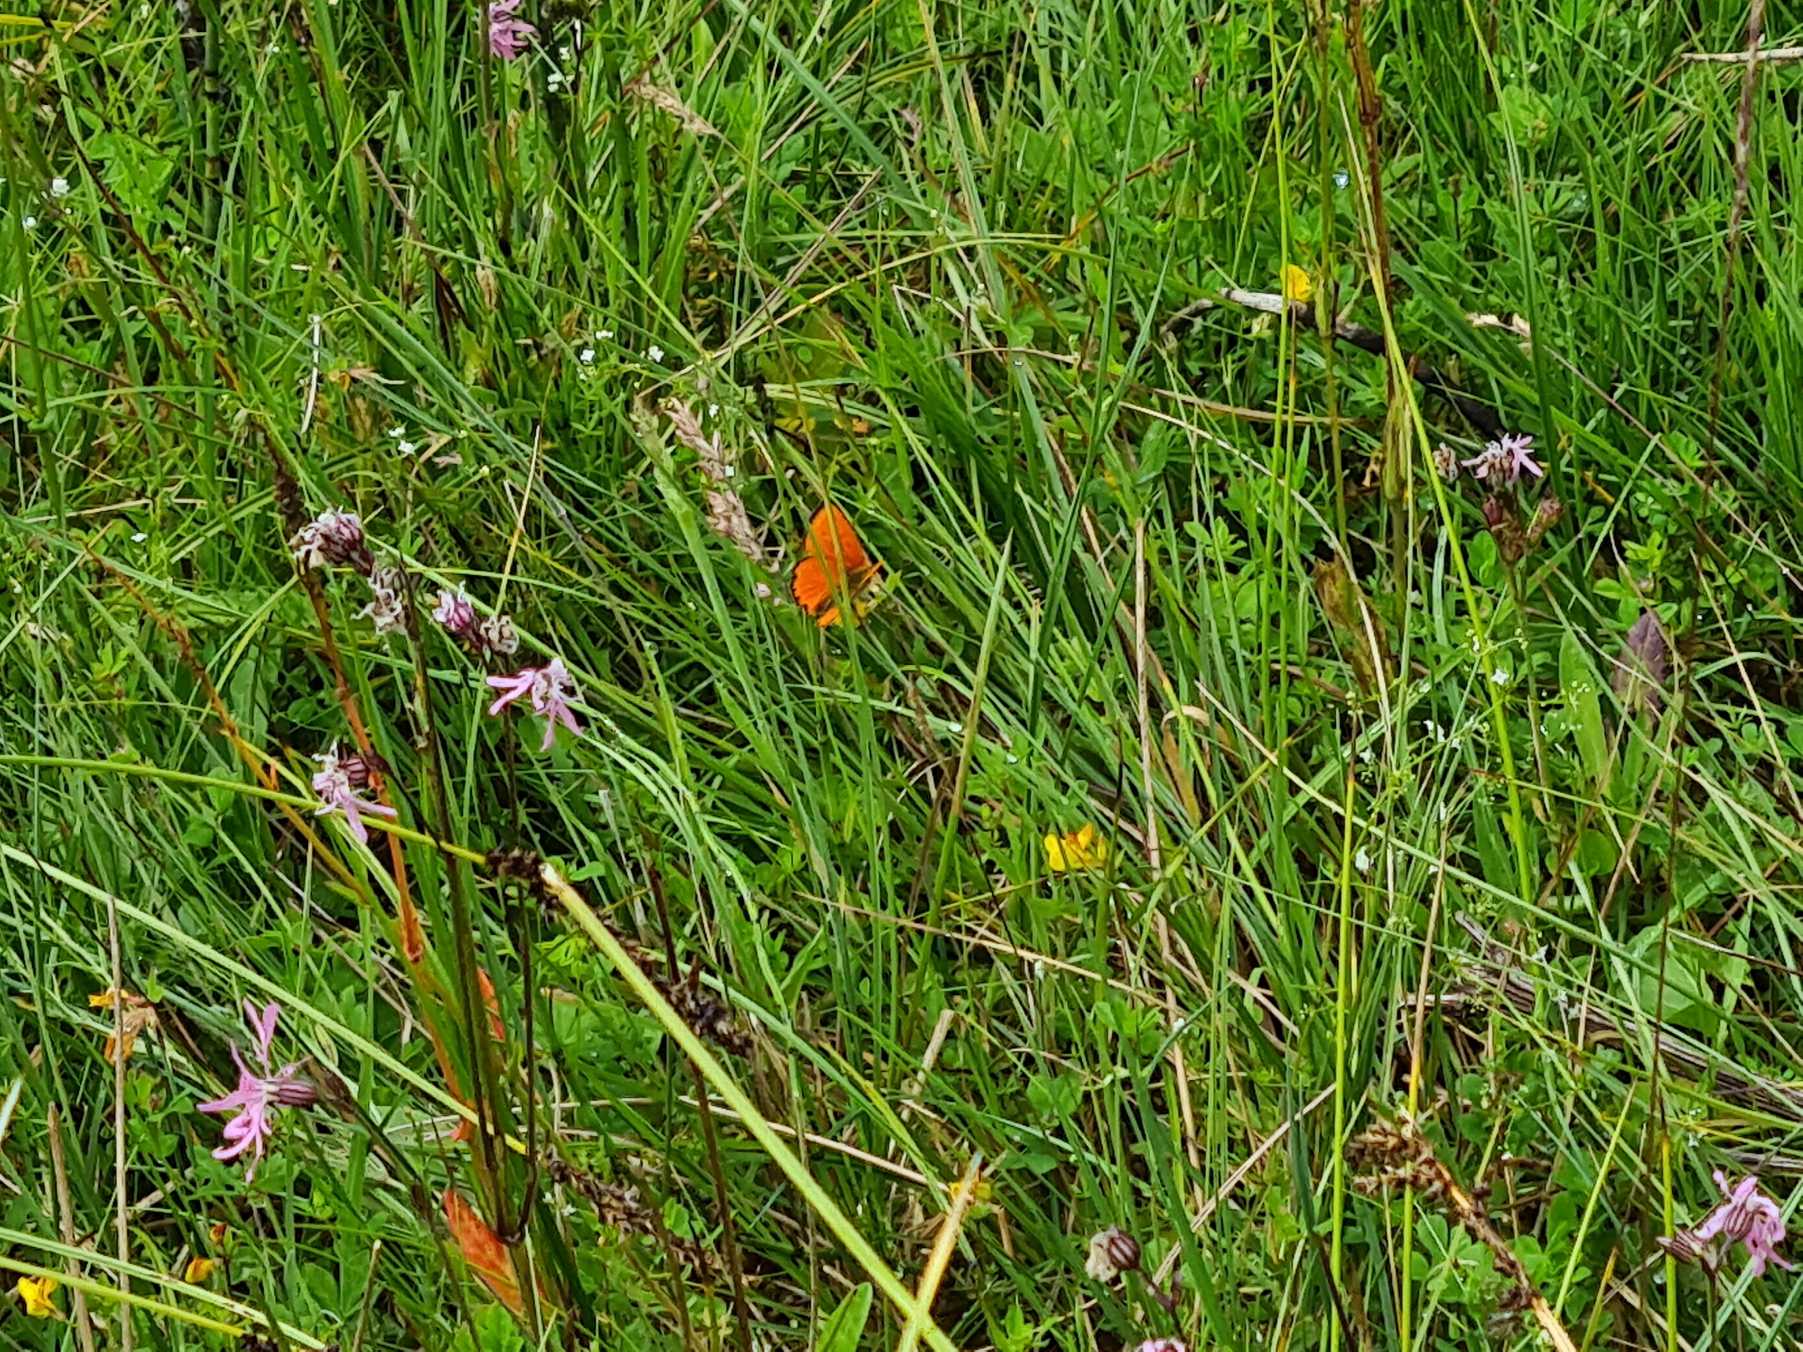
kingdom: Animalia
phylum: Arthropoda
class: Insecta
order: Lepidoptera
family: Lycaenidae
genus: Lycaena
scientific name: Lycaena virgaureae
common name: Dukatsommerfugl
